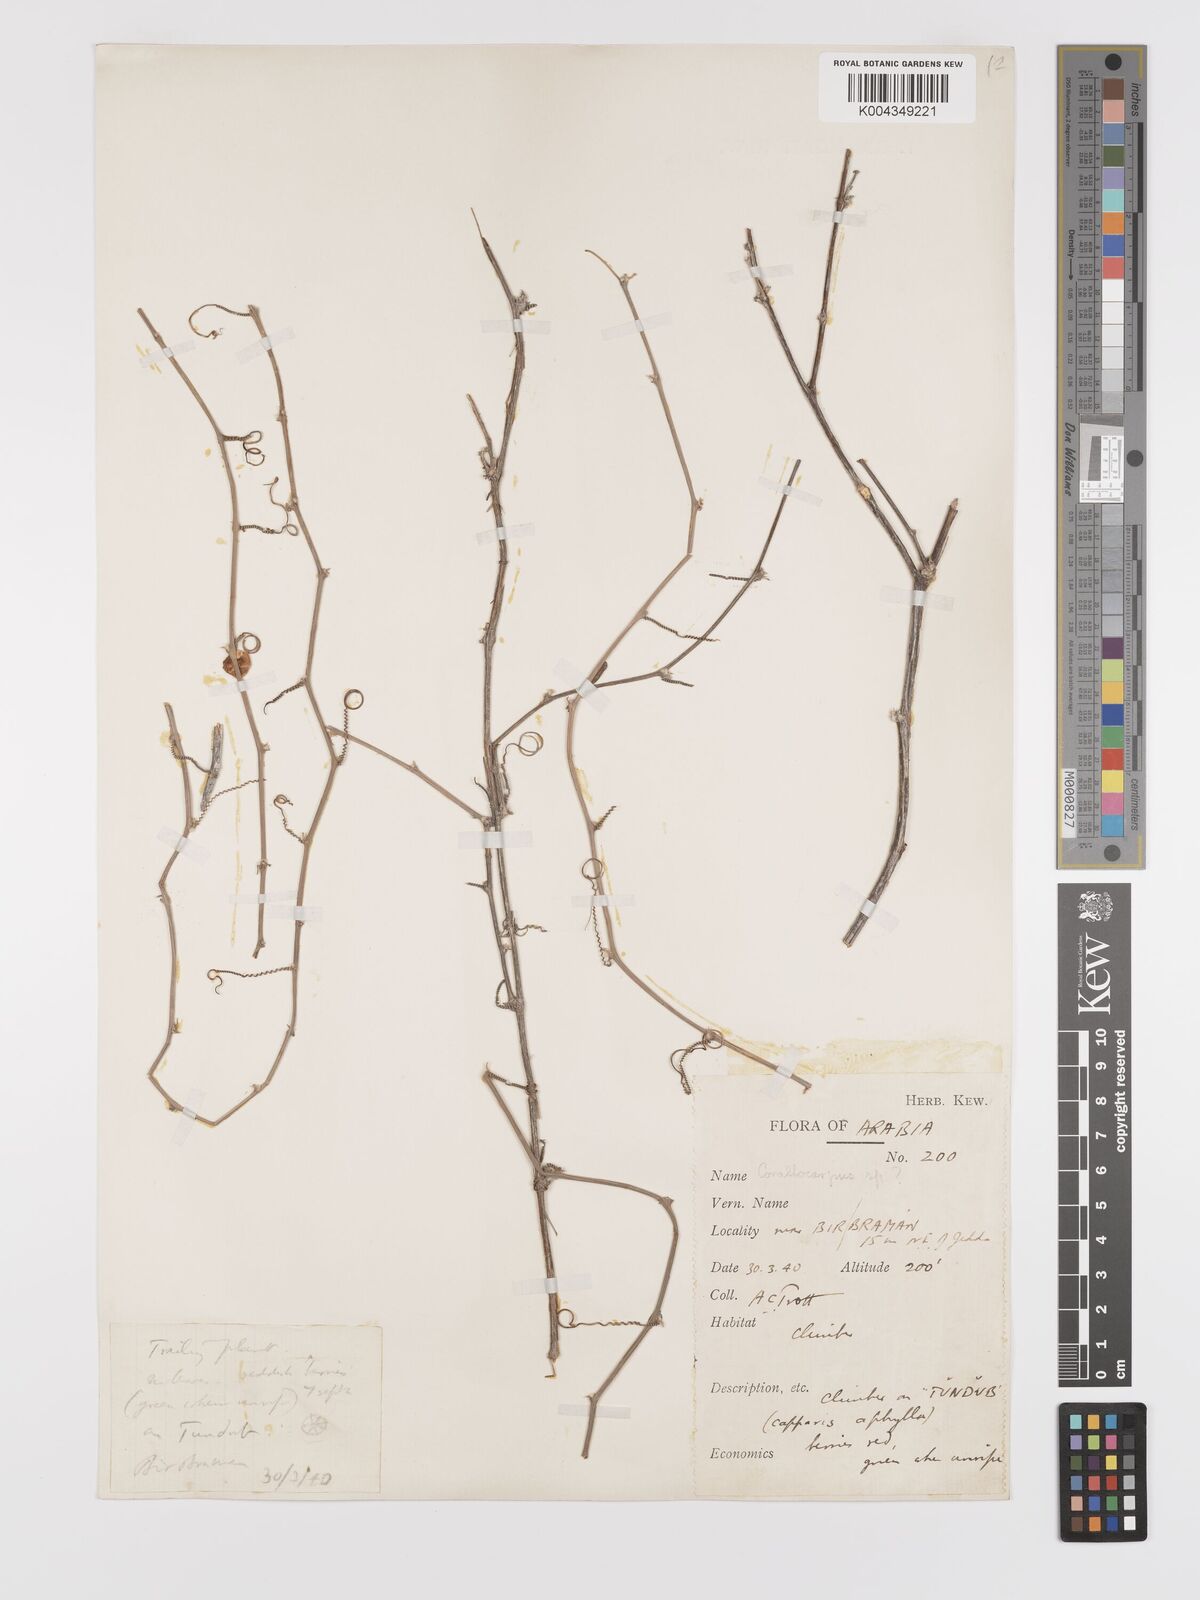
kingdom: Plantae
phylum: Tracheophyta
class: Magnoliopsida
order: Cucurbitales
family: Cucurbitaceae
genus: Zehneria
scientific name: Zehneria anomala
